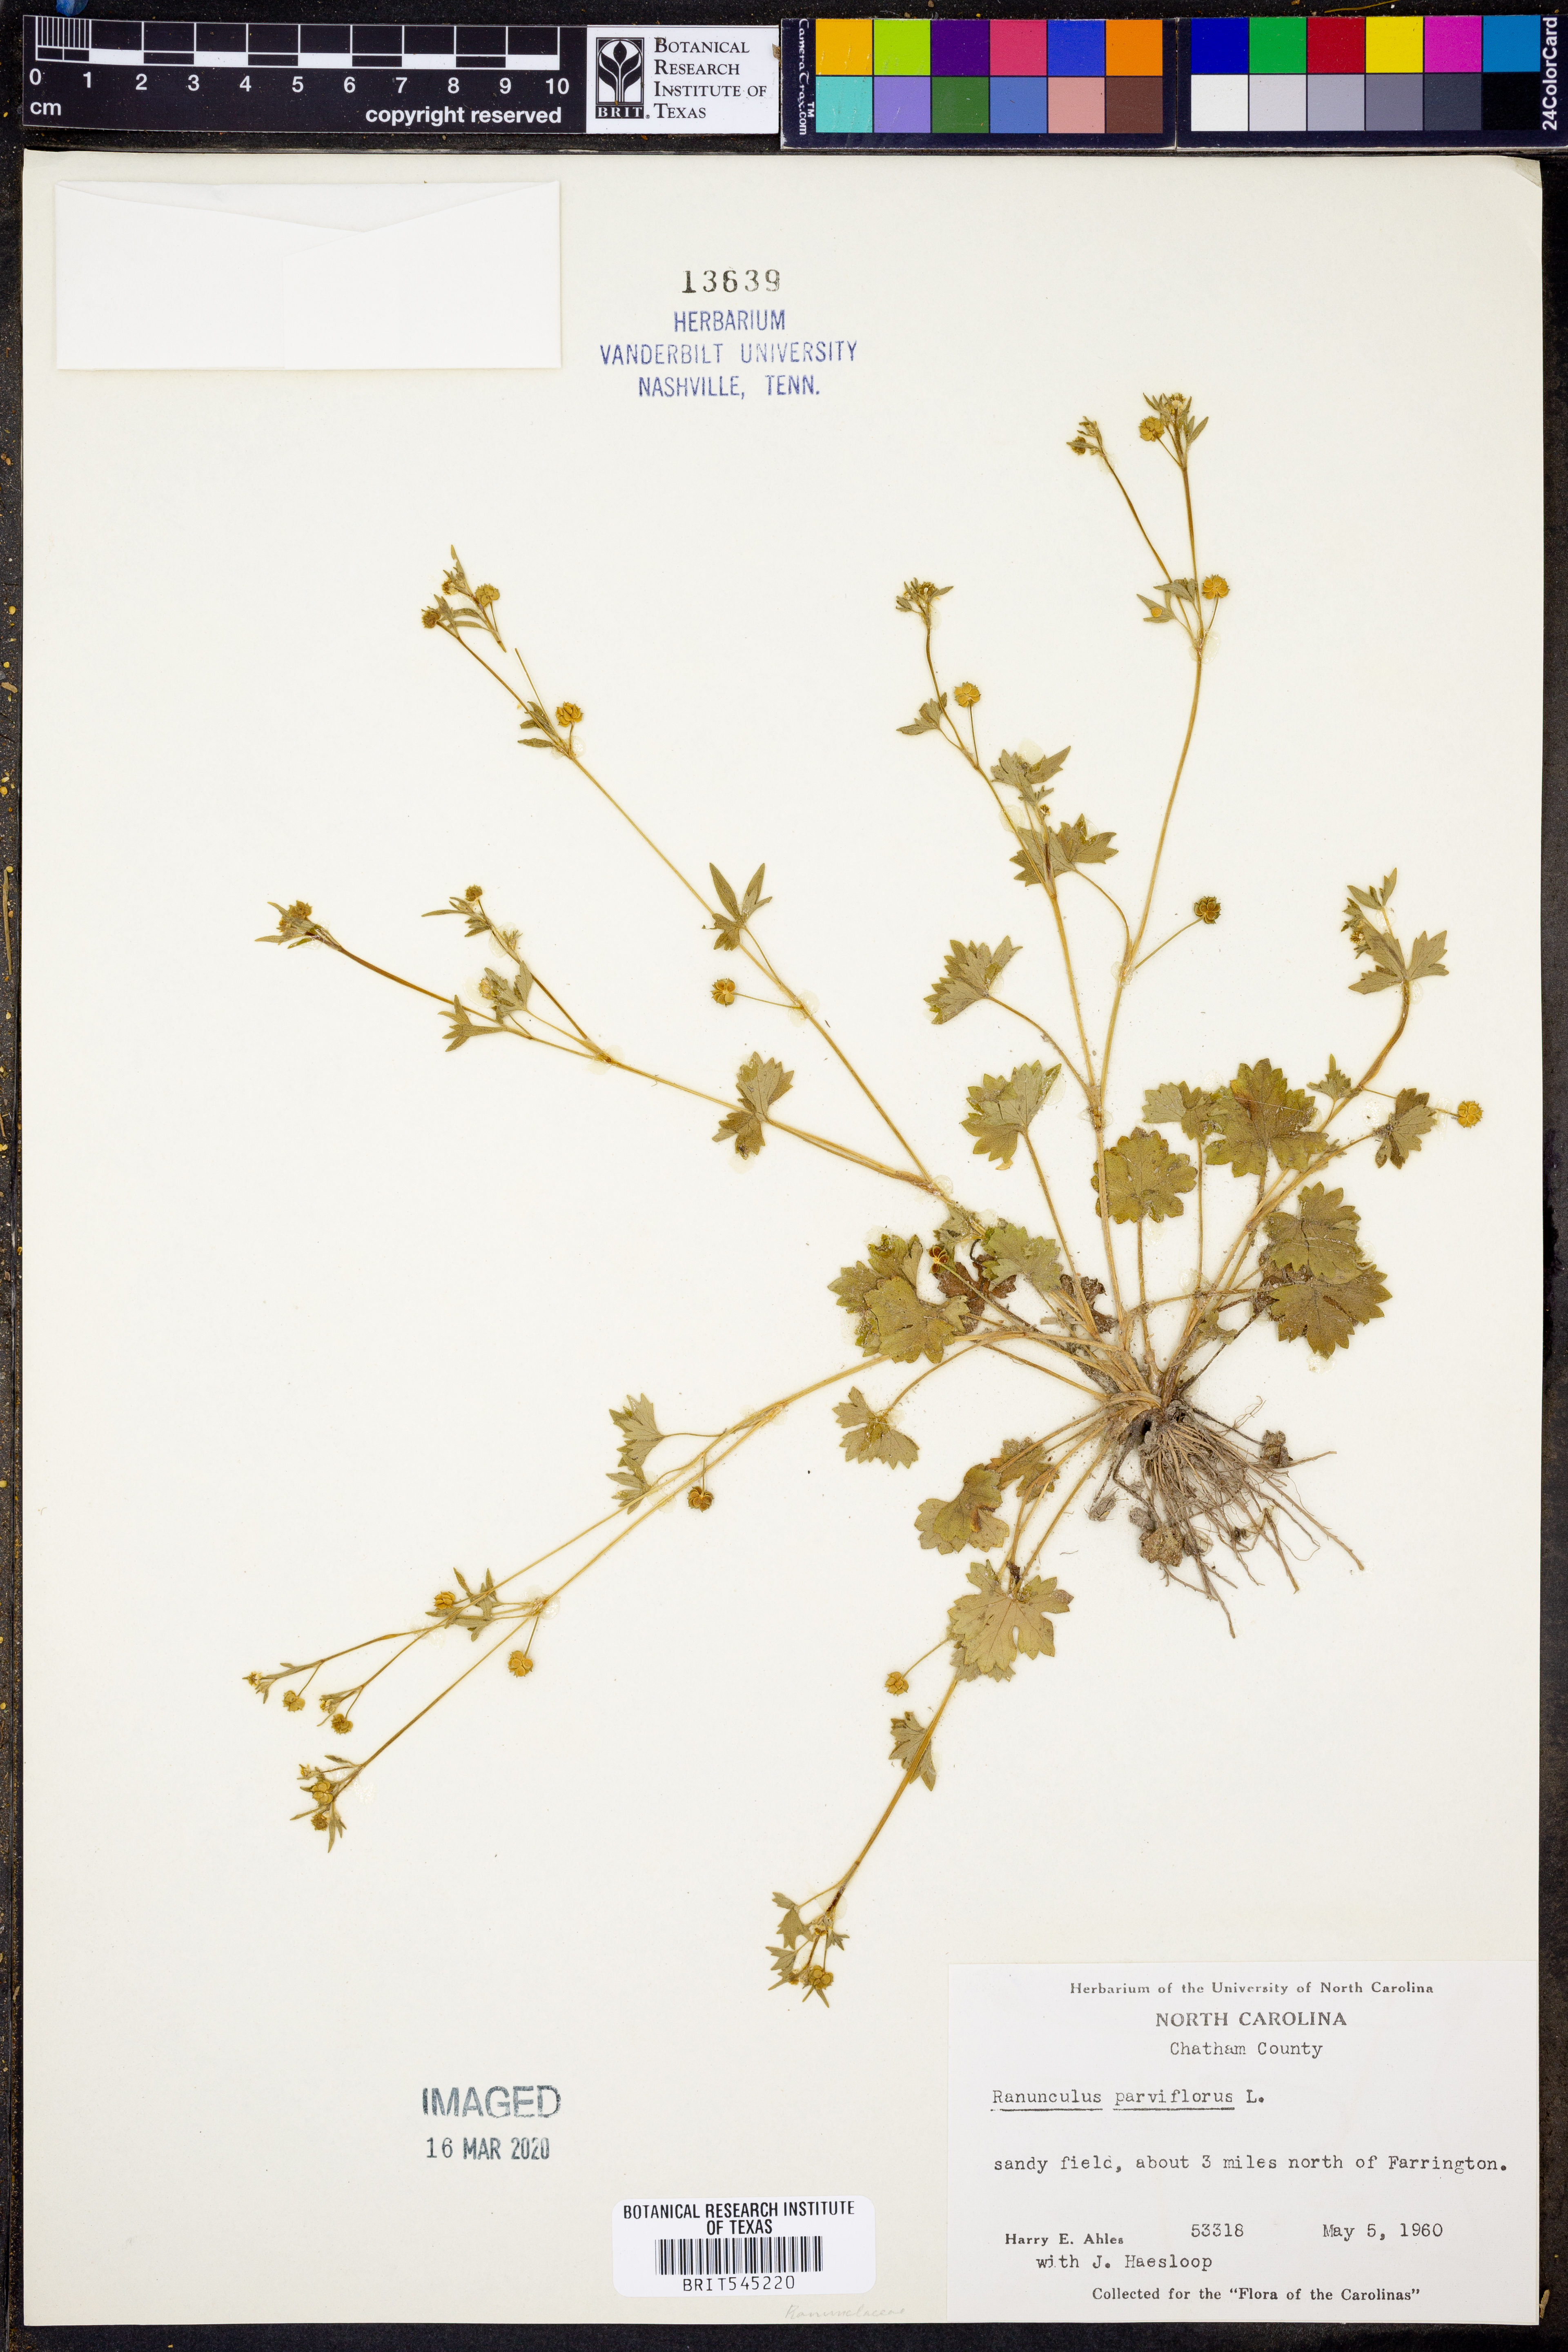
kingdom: Plantae
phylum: Tracheophyta
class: Magnoliopsida
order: Ranunculales
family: Ranunculaceae
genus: Ranunculus
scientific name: Ranunculus parviflorus
